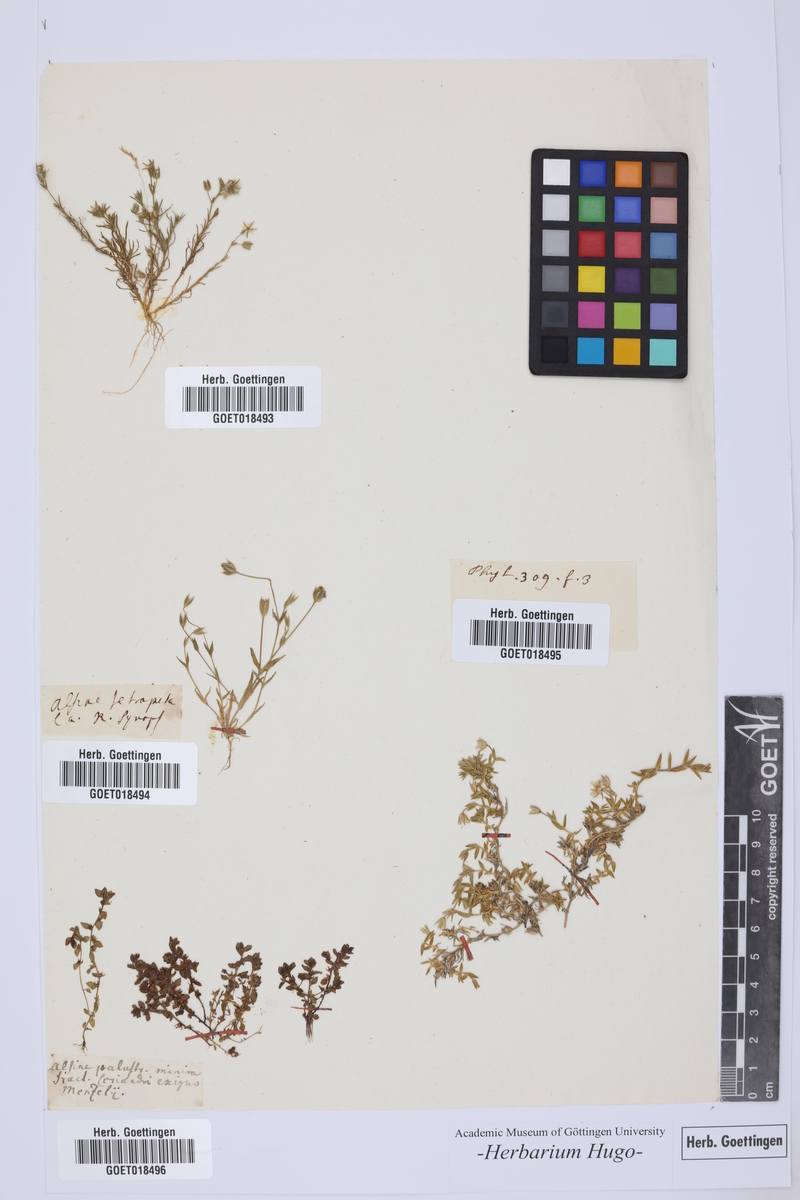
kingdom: Plantae
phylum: Tracheophyta
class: Magnoliopsida
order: Caryophyllales
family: Caryophyllaceae
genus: Alsine
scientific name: Alsine
